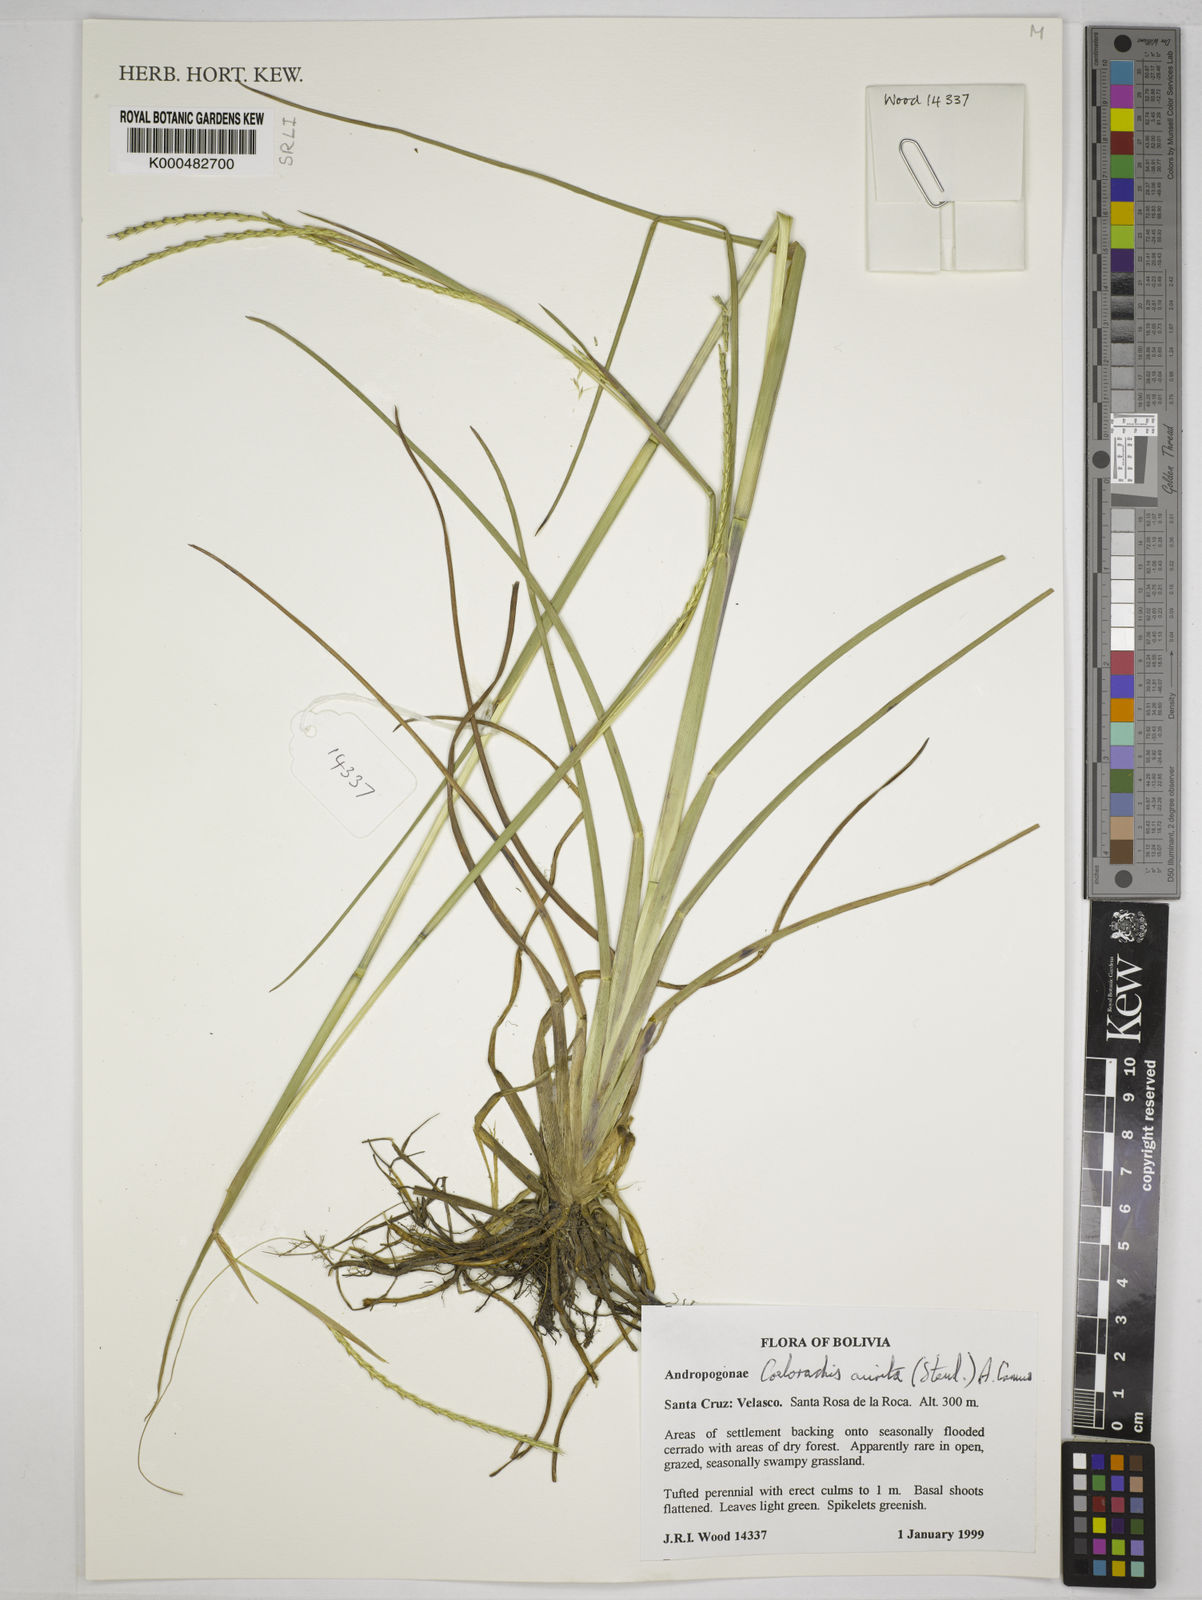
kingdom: Plantae
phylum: Tracheophyta
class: Liliopsida
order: Poales
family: Poaceae
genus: Rottboellia
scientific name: Rottboellia aurita
